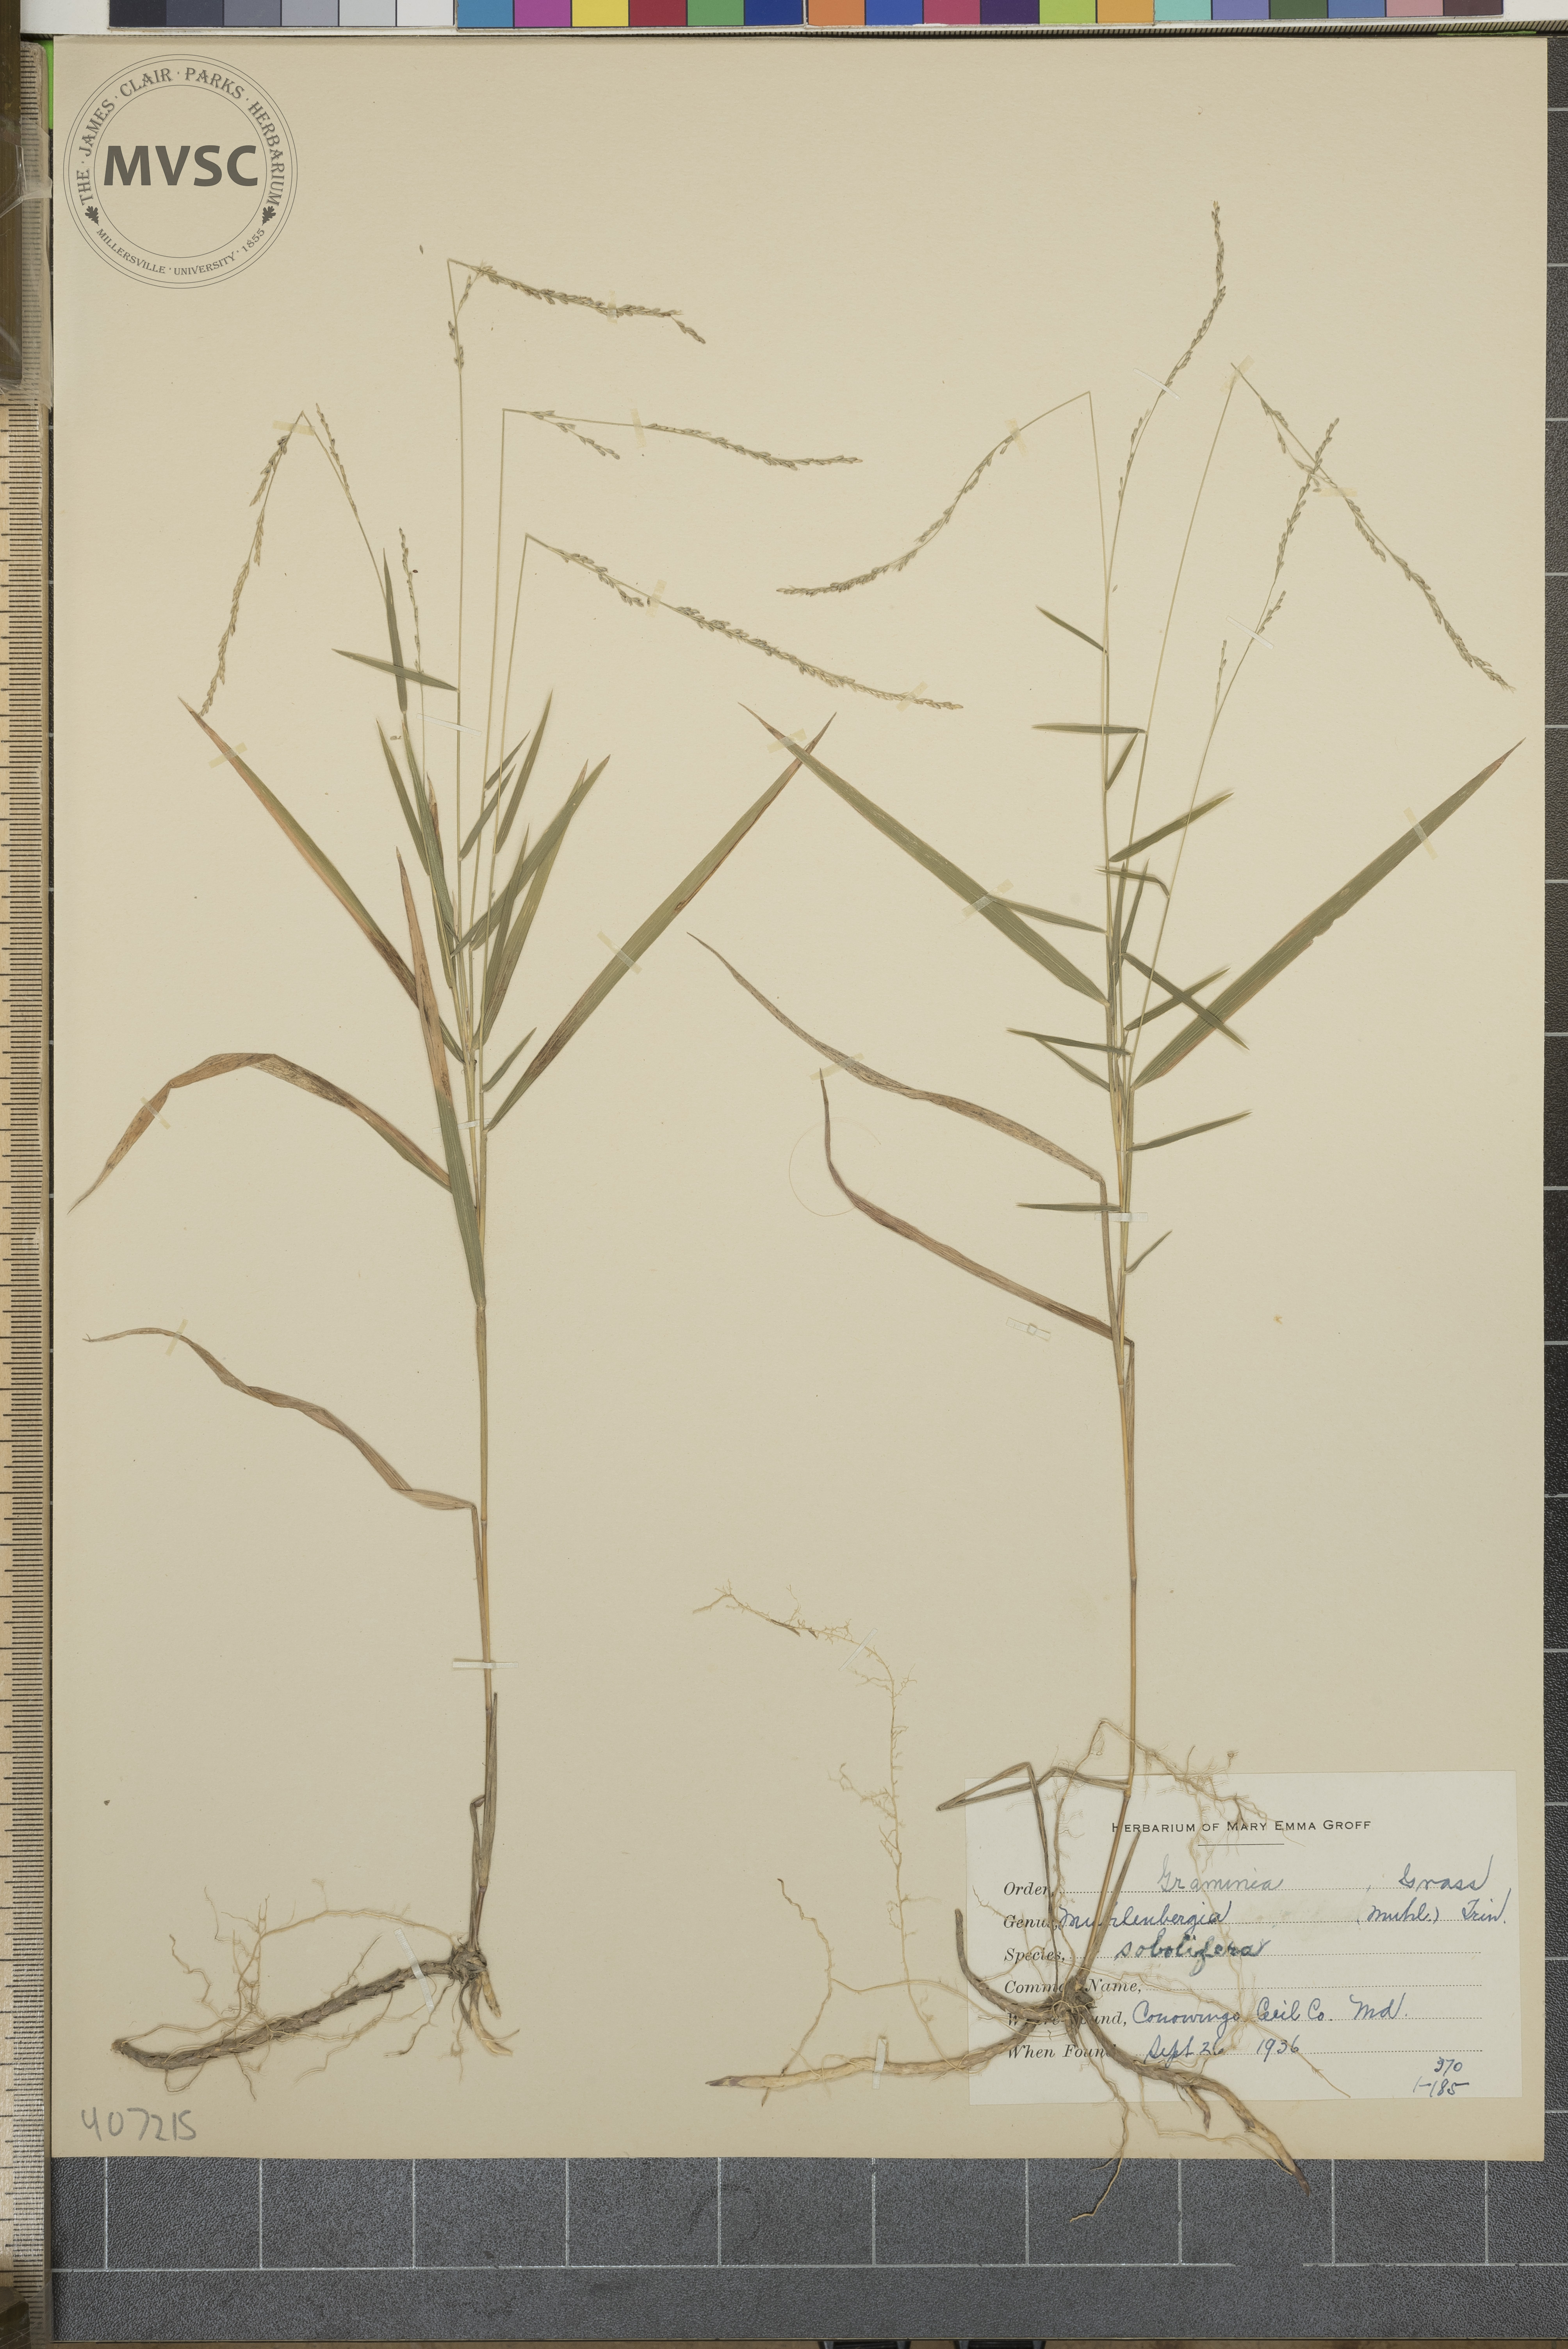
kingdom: Plantae
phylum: Tracheophyta
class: Liliopsida
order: Poales
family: Poaceae
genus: Muhlenbergia
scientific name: Muhlenbergia sobolifera
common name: Creeping muhly
